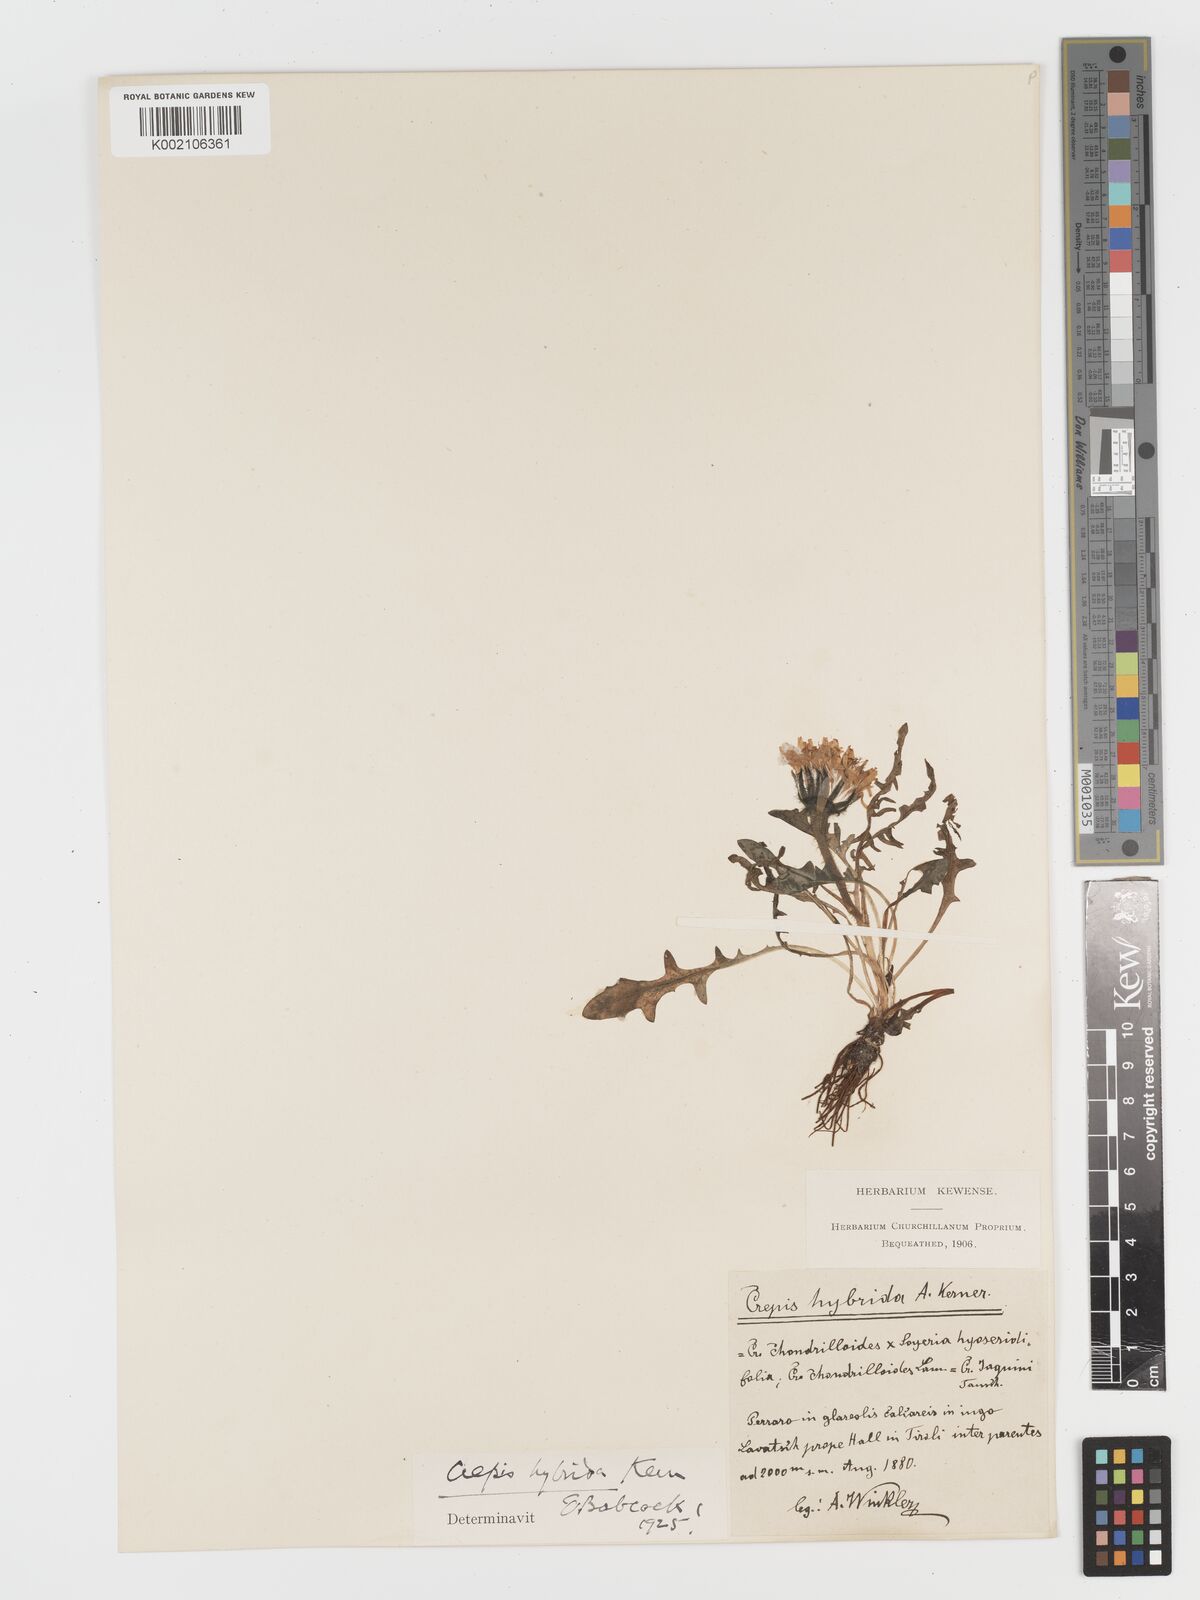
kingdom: Plantae
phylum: Tracheophyta
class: Magnoliopsida
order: Asterales
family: Asteraceae
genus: Crepis
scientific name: Crepis hybrida
